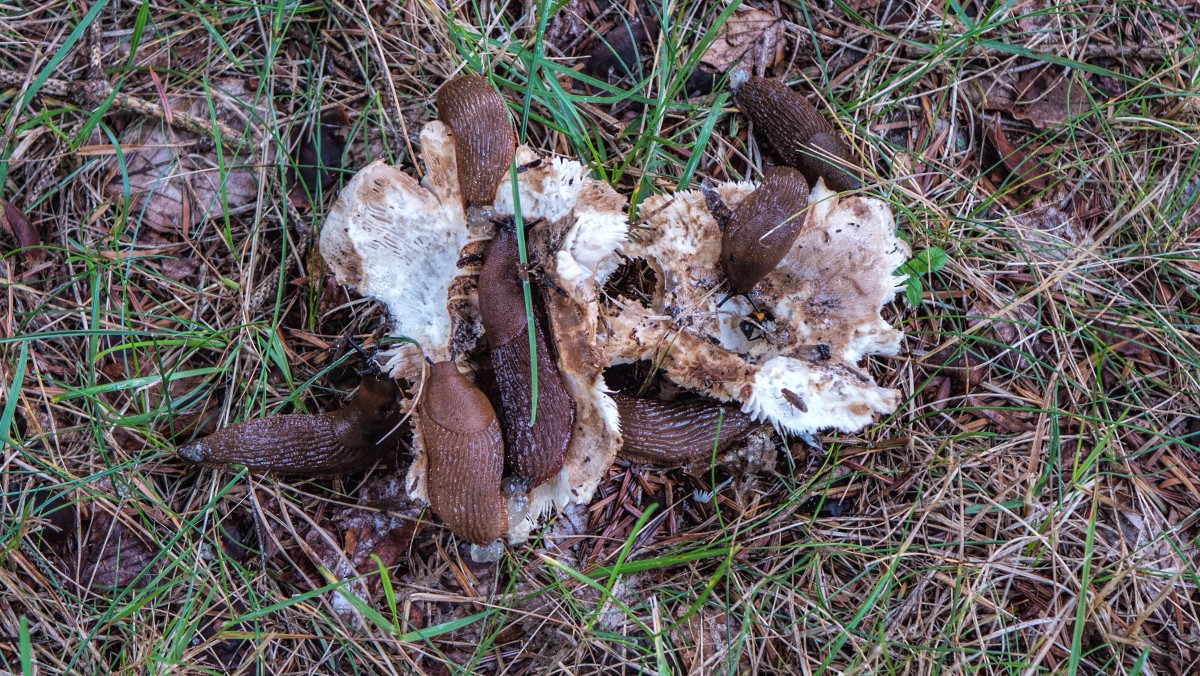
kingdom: Fungi
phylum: Basidiomycota
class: Agaricomycetes
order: Russulales
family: Russulaceae
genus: Russula
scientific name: Russula delica
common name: almindelig tragt-skørhat
